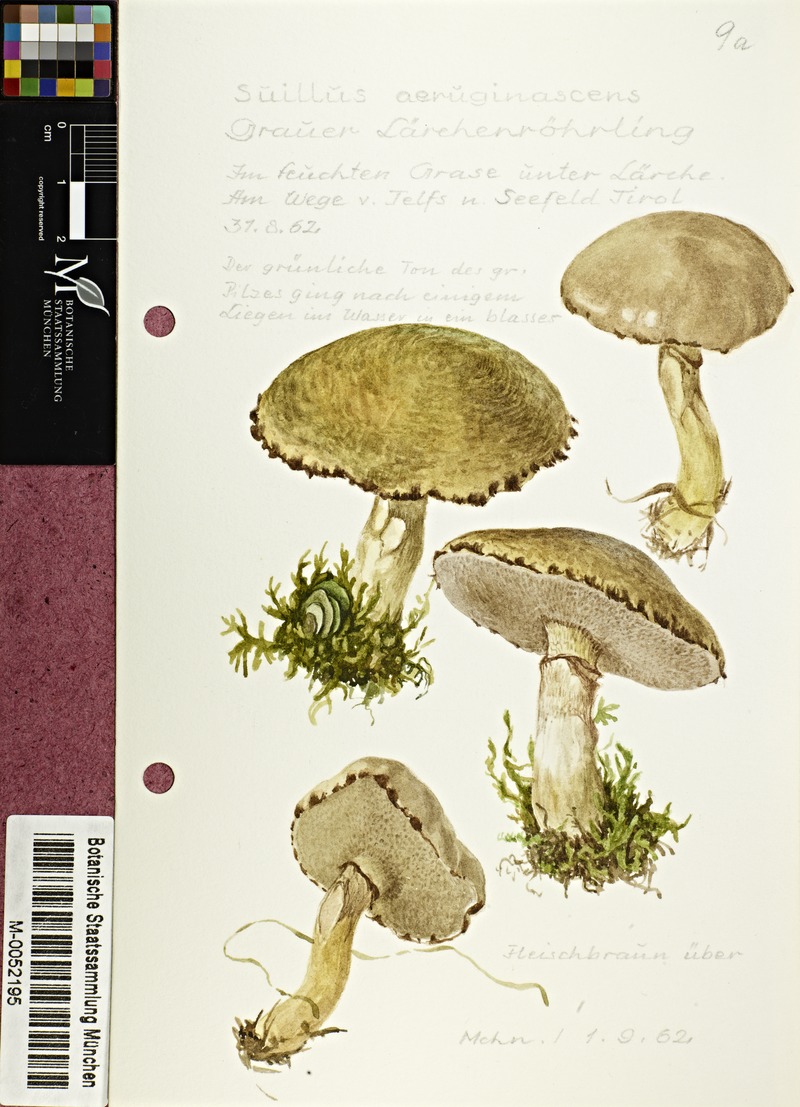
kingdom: Fungi
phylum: Basidiomycota
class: Agaricomycetes
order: Boletales
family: Suillaceae
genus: Suillus
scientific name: Suillus
